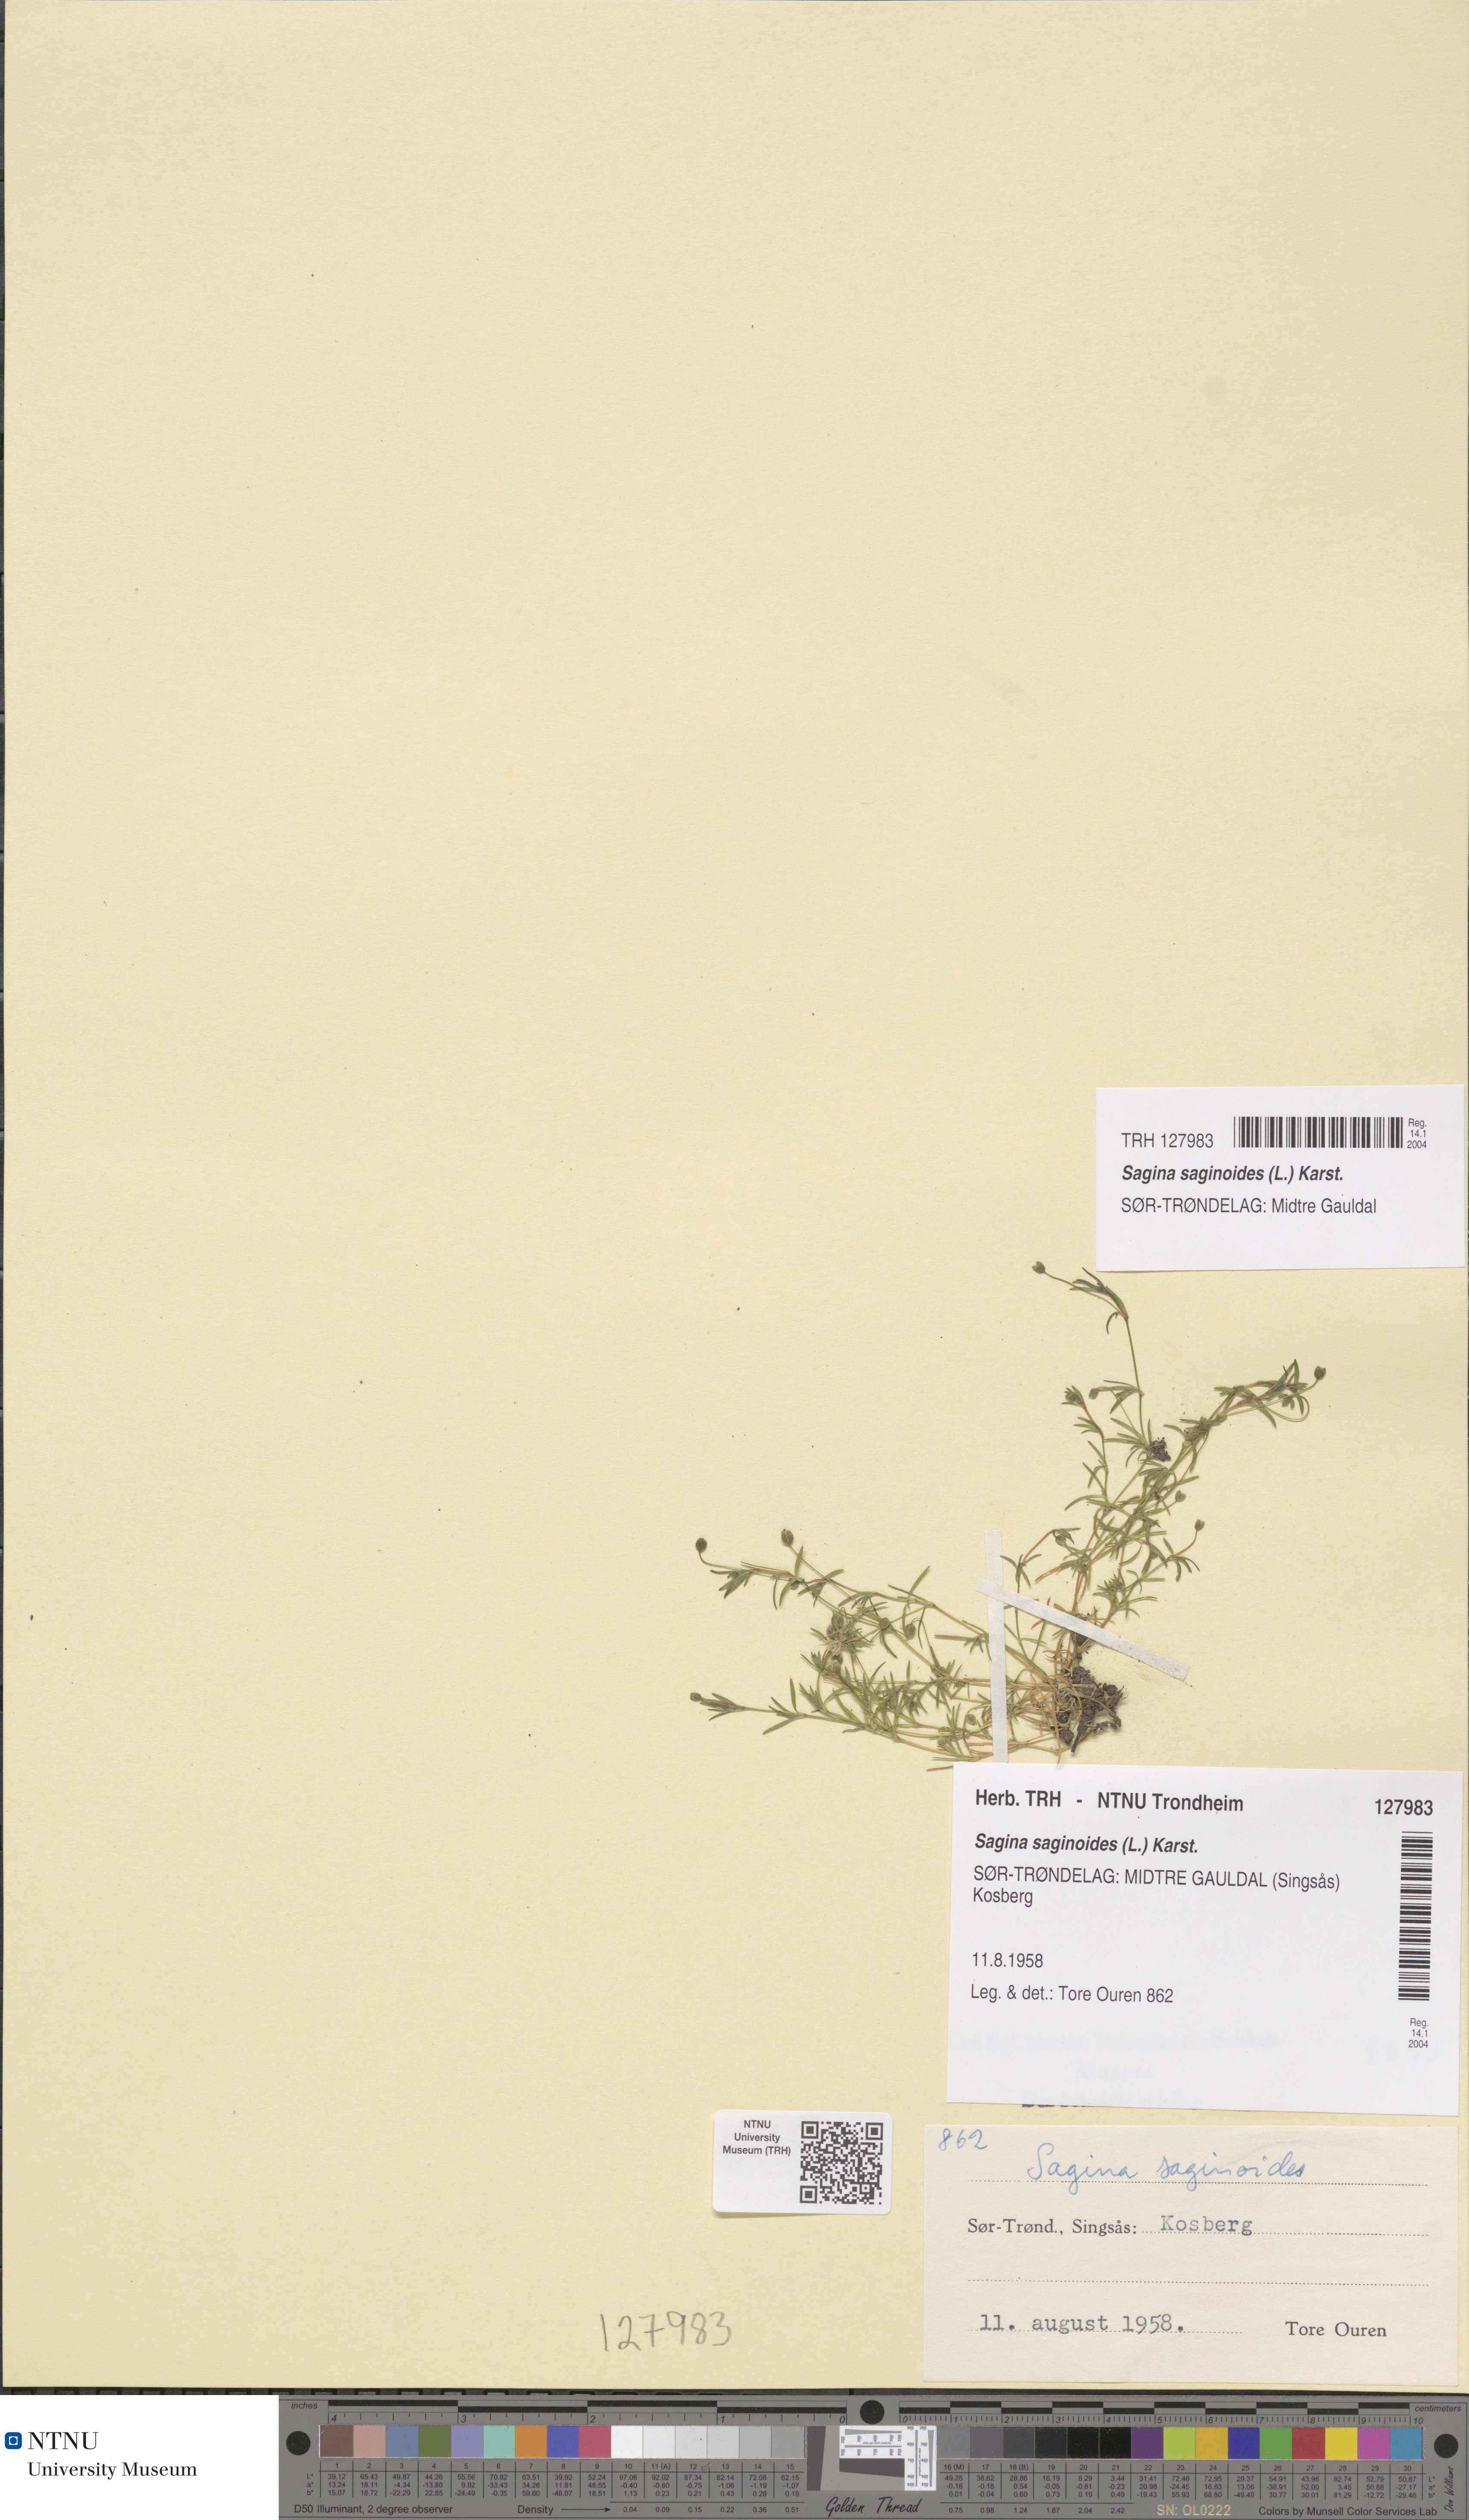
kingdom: Plantae
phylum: Tracheophyta
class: Magnoliopsida
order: Caryophyllales
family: Caryophyllaceae
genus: Sagina
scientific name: Sagina saginoides
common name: Alpine pearlwort
